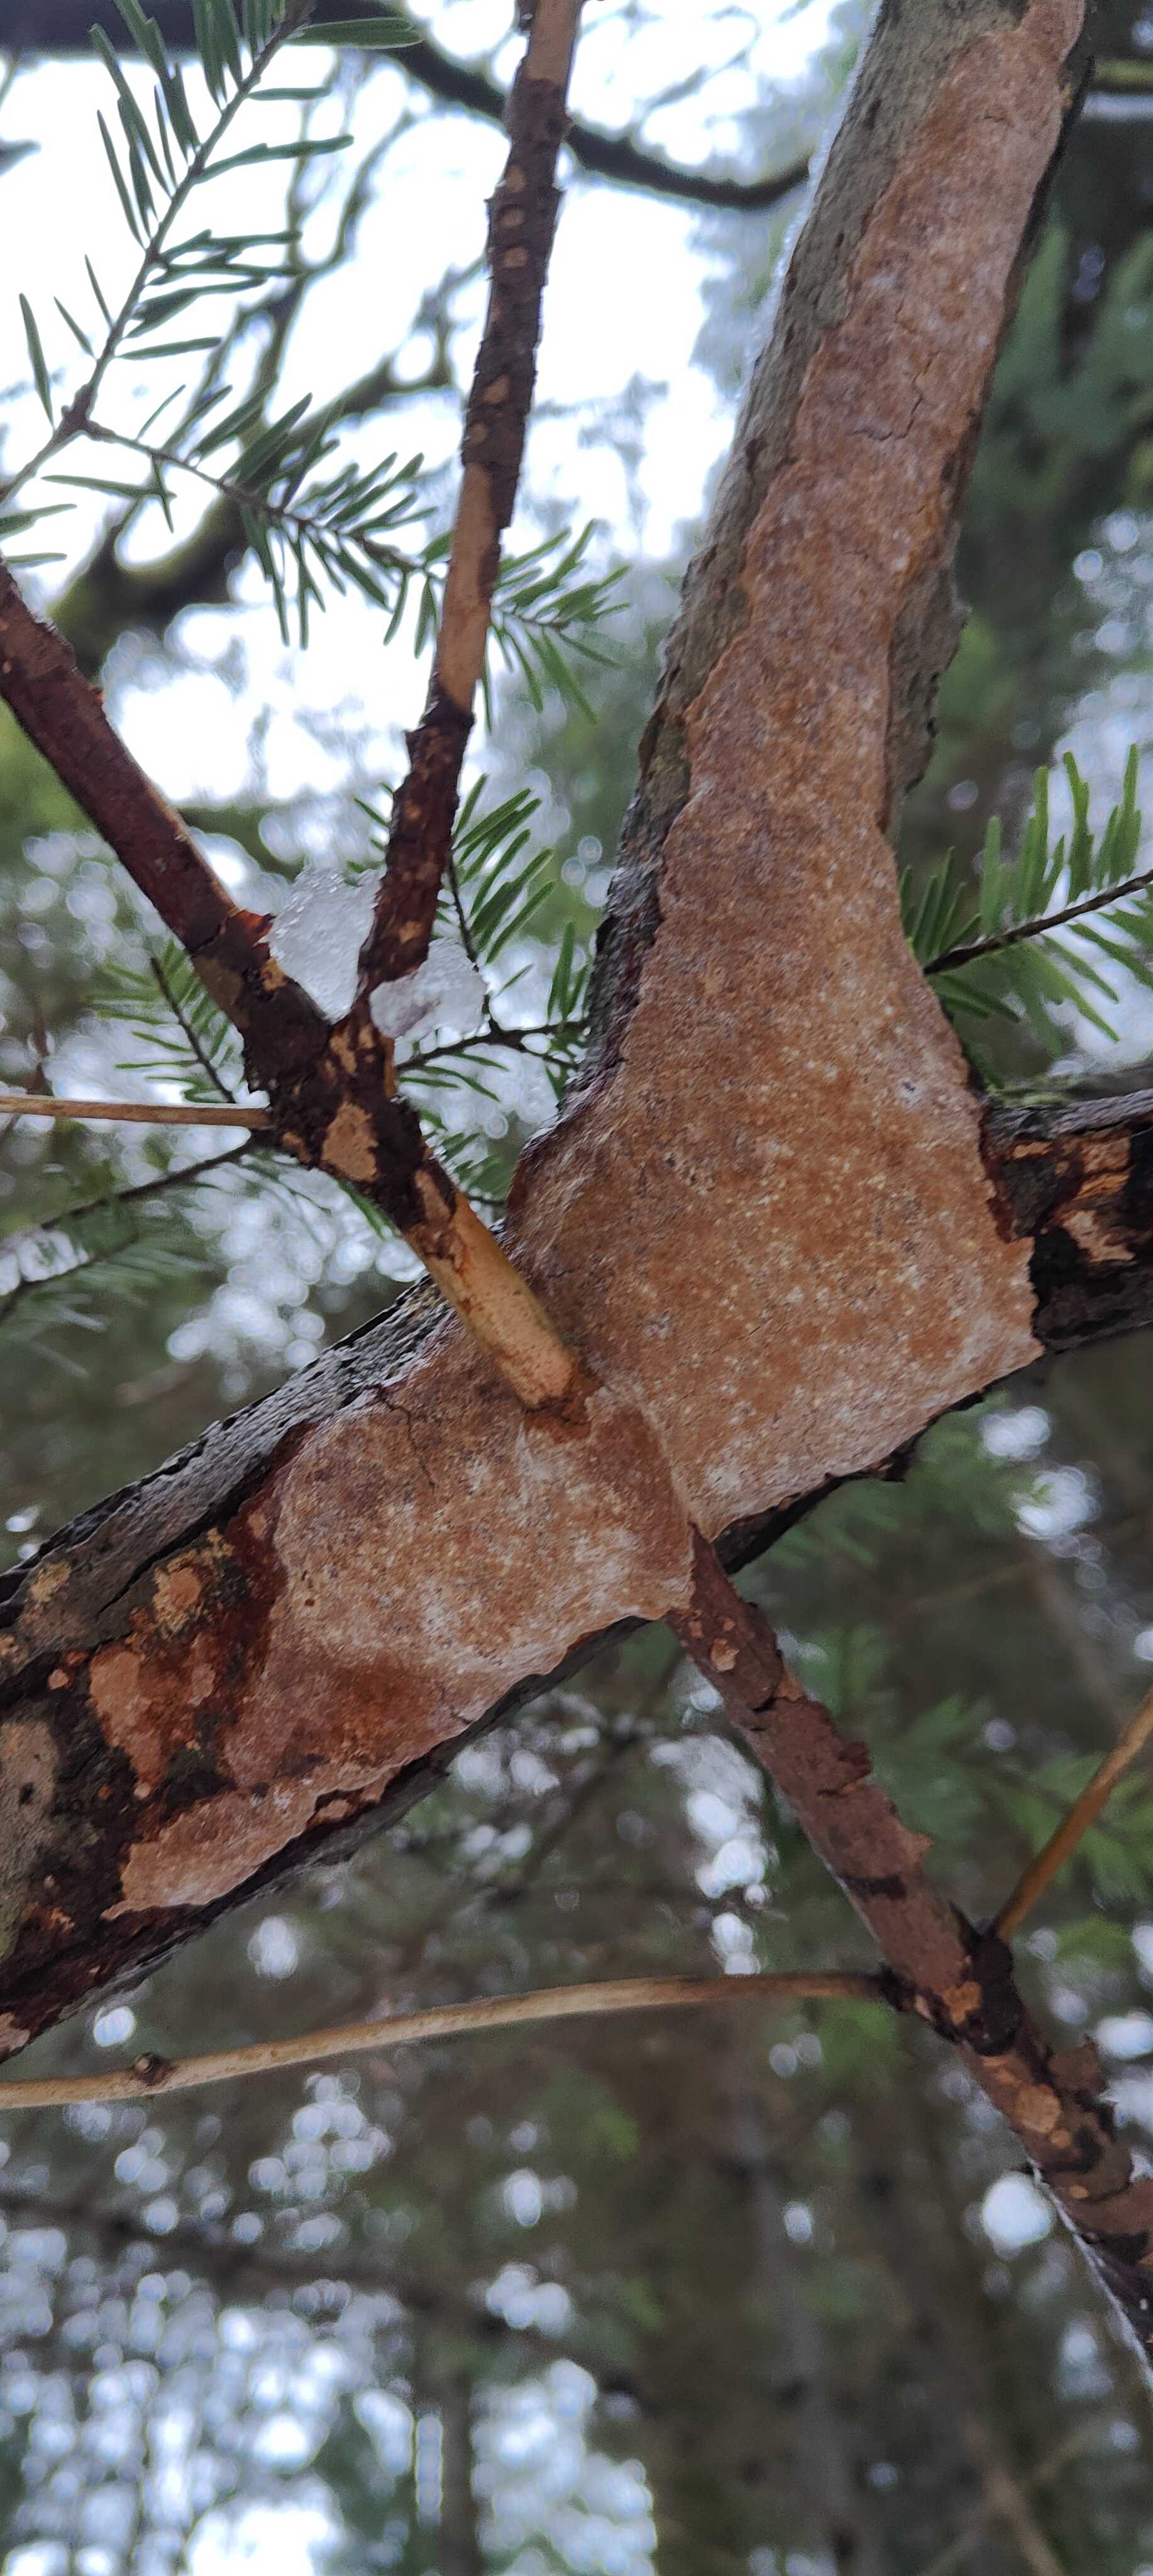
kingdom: Fungi
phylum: Basidiomycota
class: Agaricomycetes
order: Hymenochaetales
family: Hymenochaetaceae
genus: Fuscoporia
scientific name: Fuscoporia ferrea
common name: skorpe-ildporesvamp
